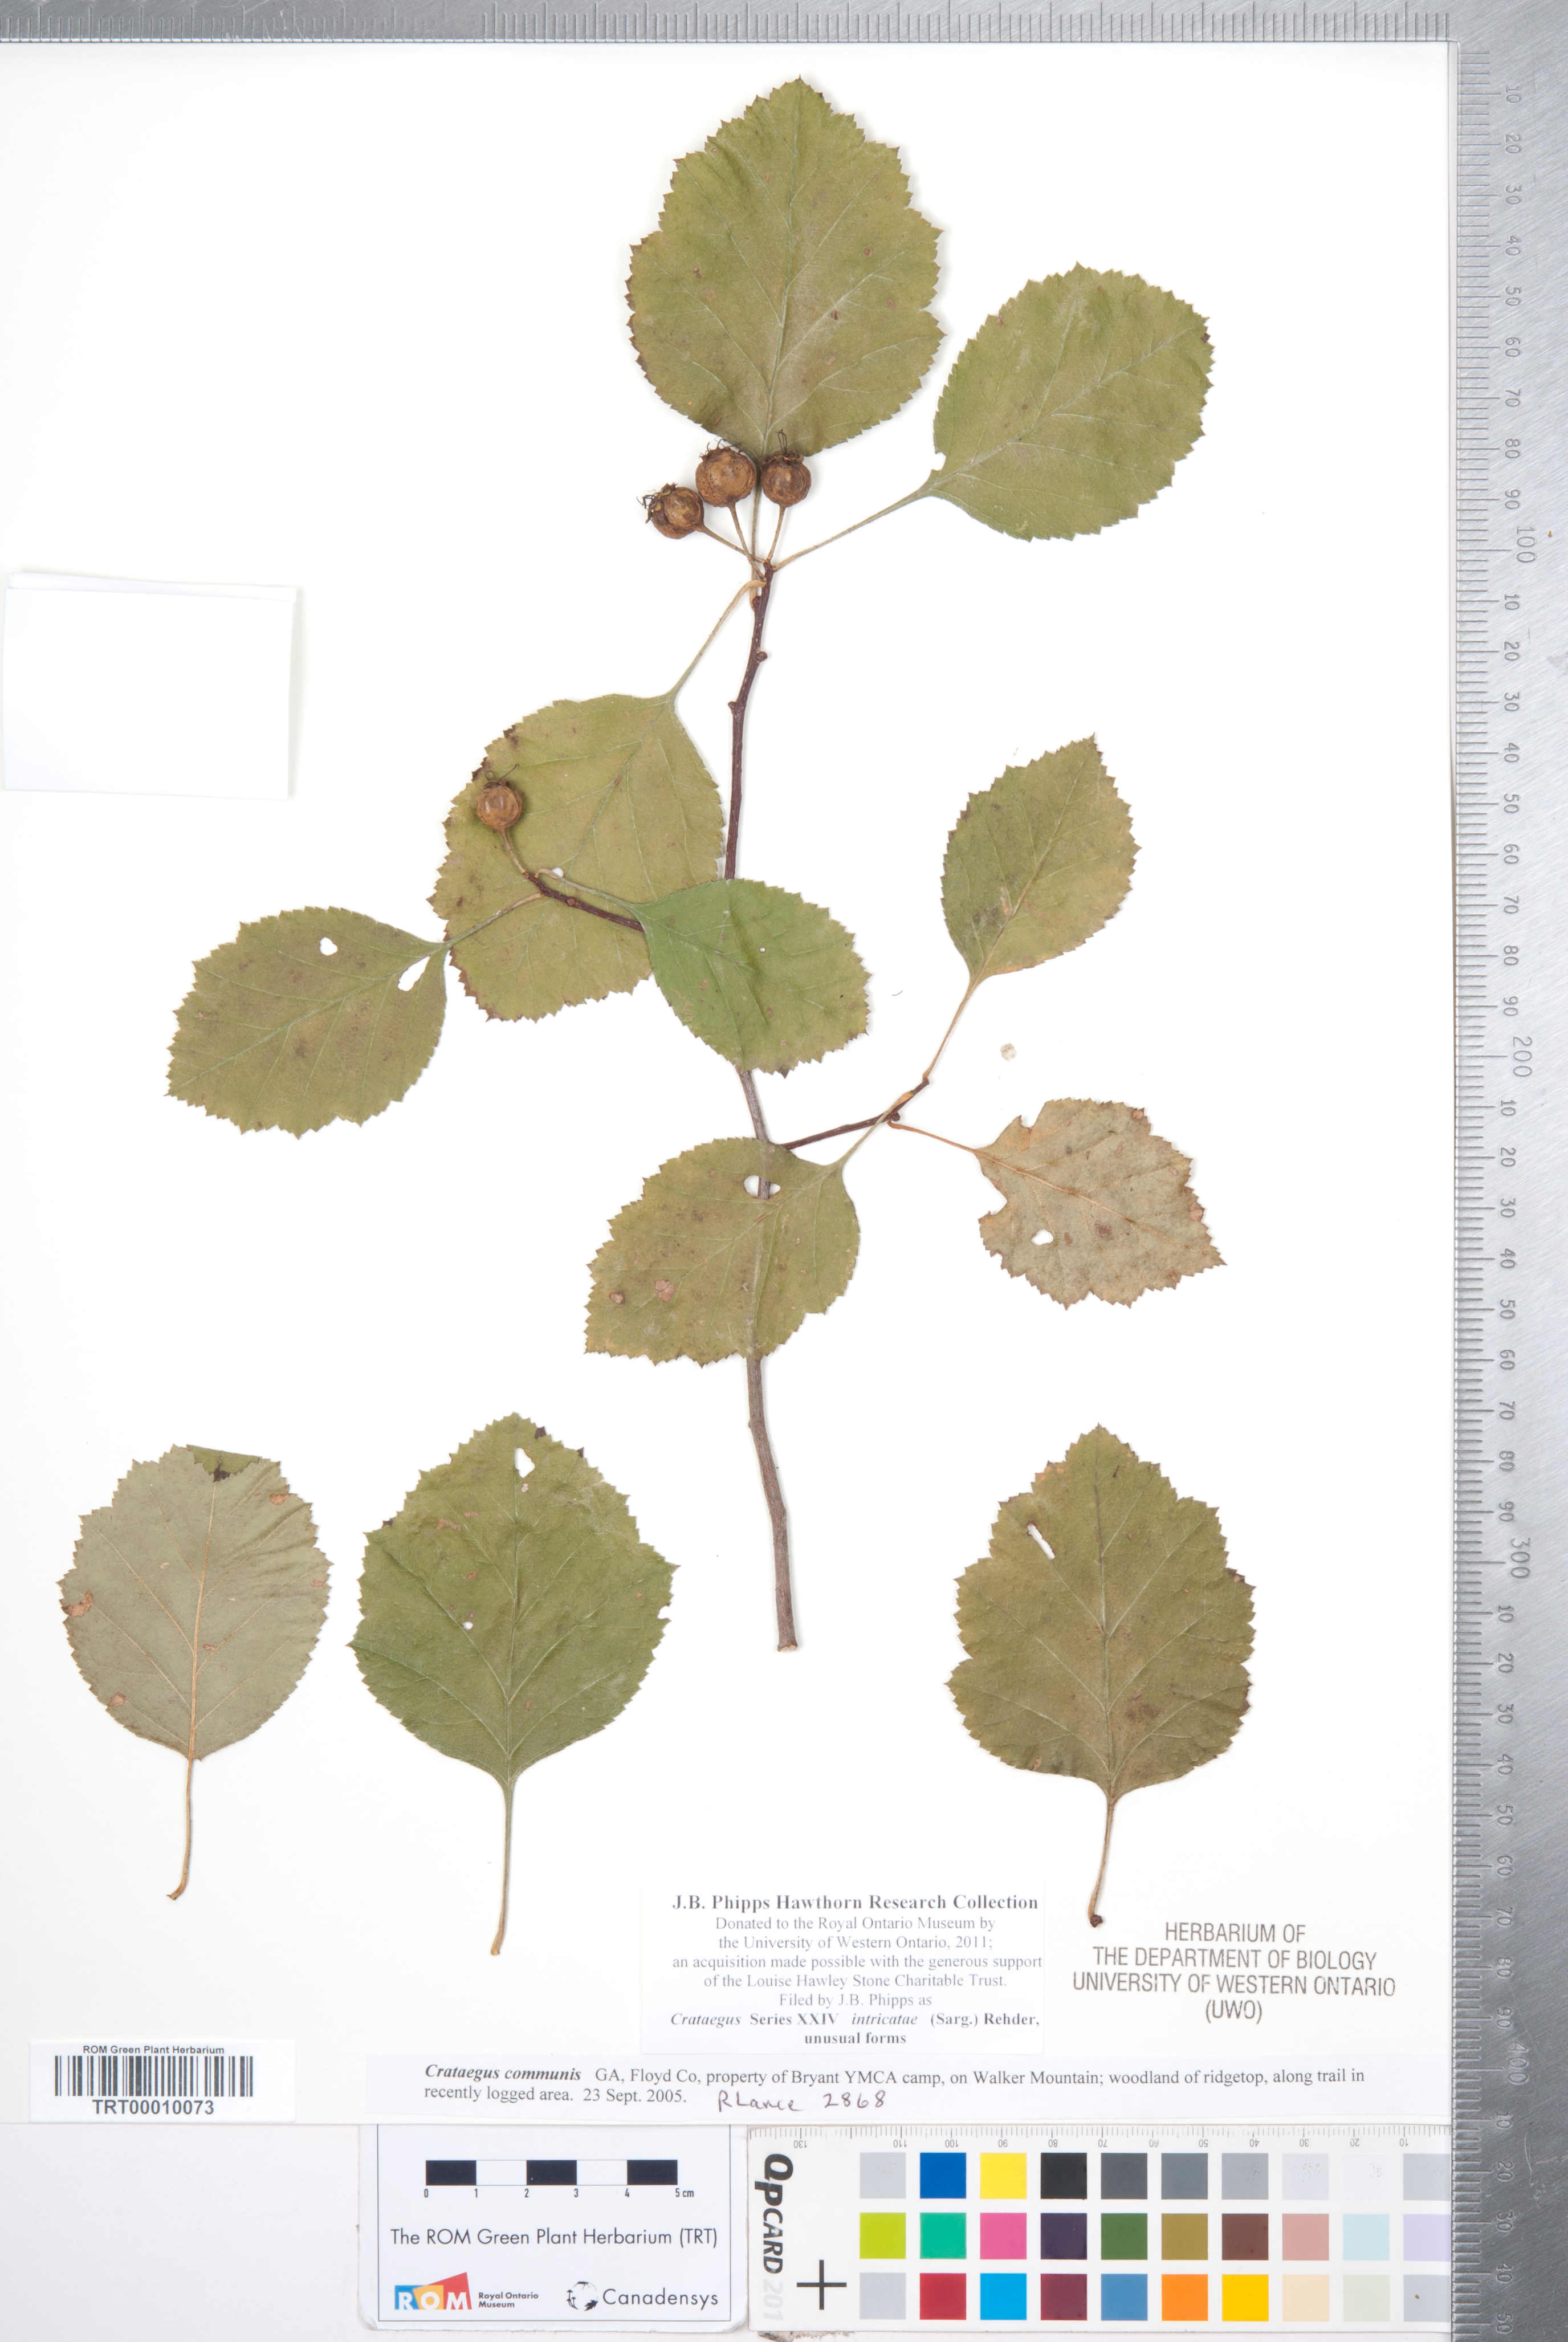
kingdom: Plantae
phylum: Tracheophyta
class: Magnoliopsida
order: Rosales
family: Rosaceae
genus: Crataegus
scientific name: Crataegus intricata
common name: Biltmore hawthorn
